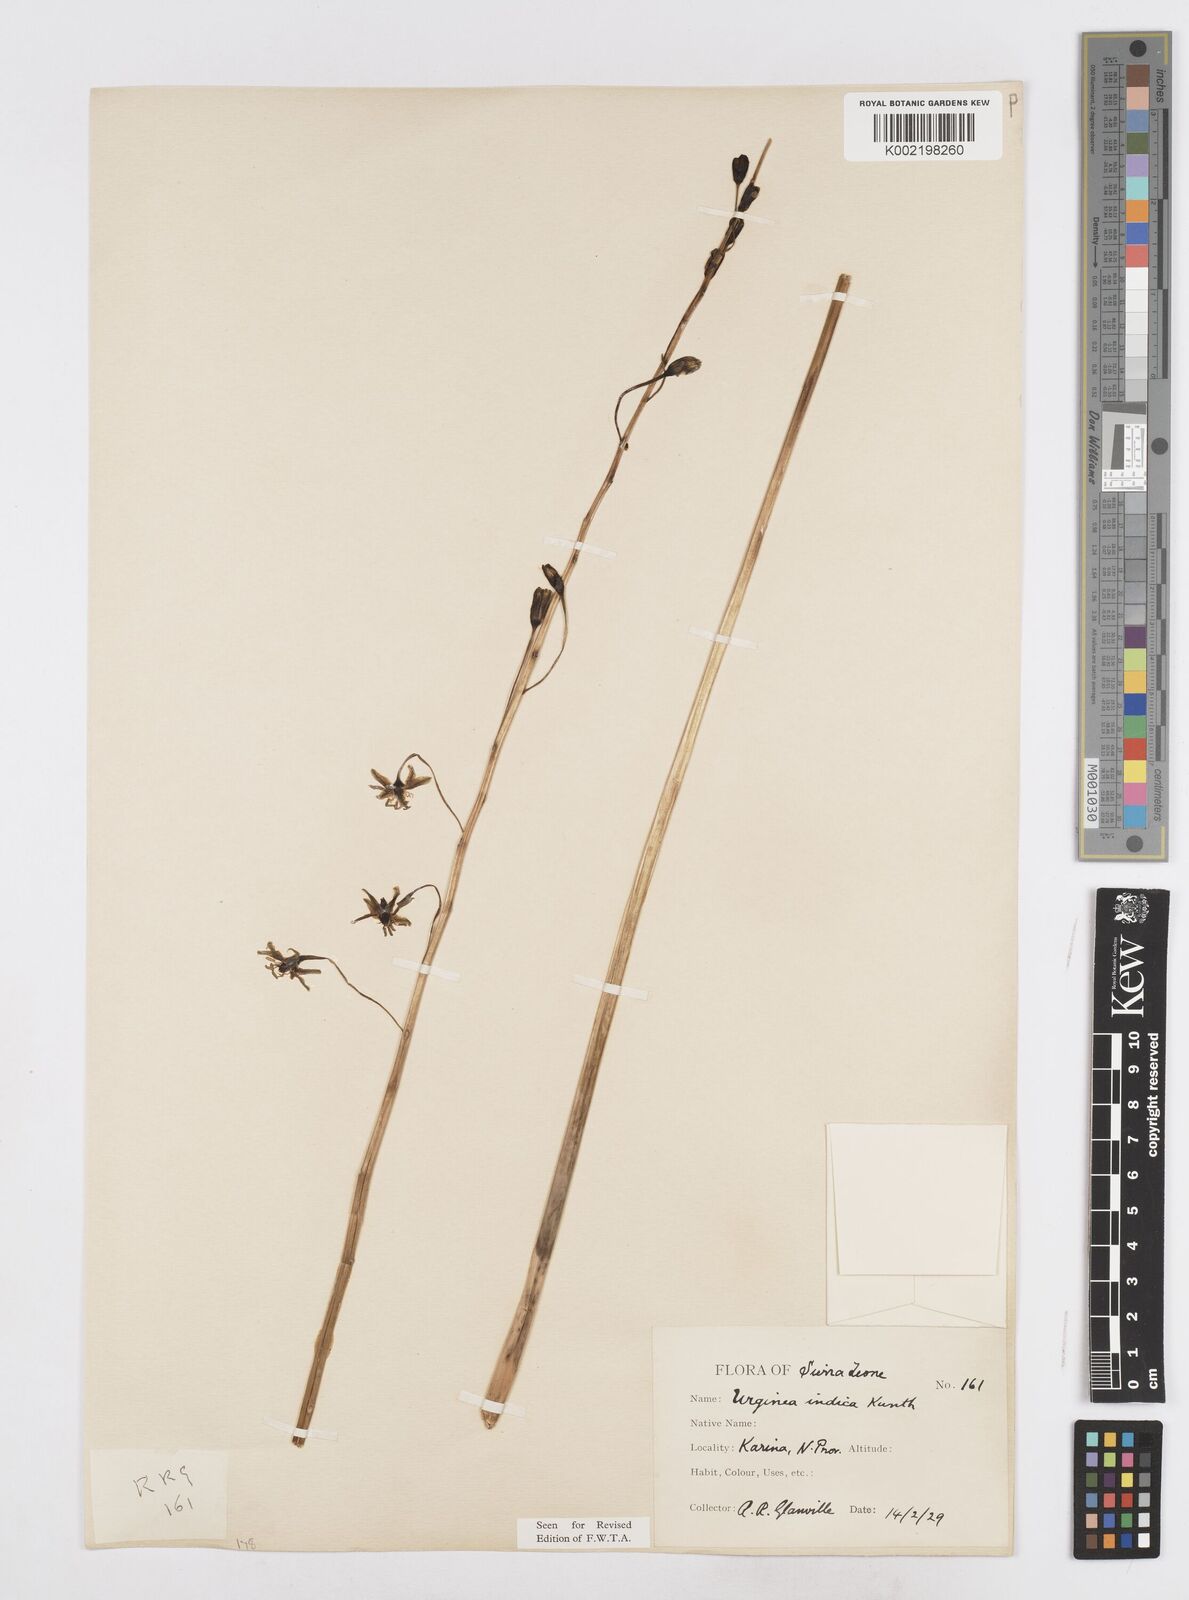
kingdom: Plantae
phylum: Tracheophyta
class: Liliopsida
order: Asparagales
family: Asparagaceae
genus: Drimia
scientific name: Drimia indica
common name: Indian-squill
